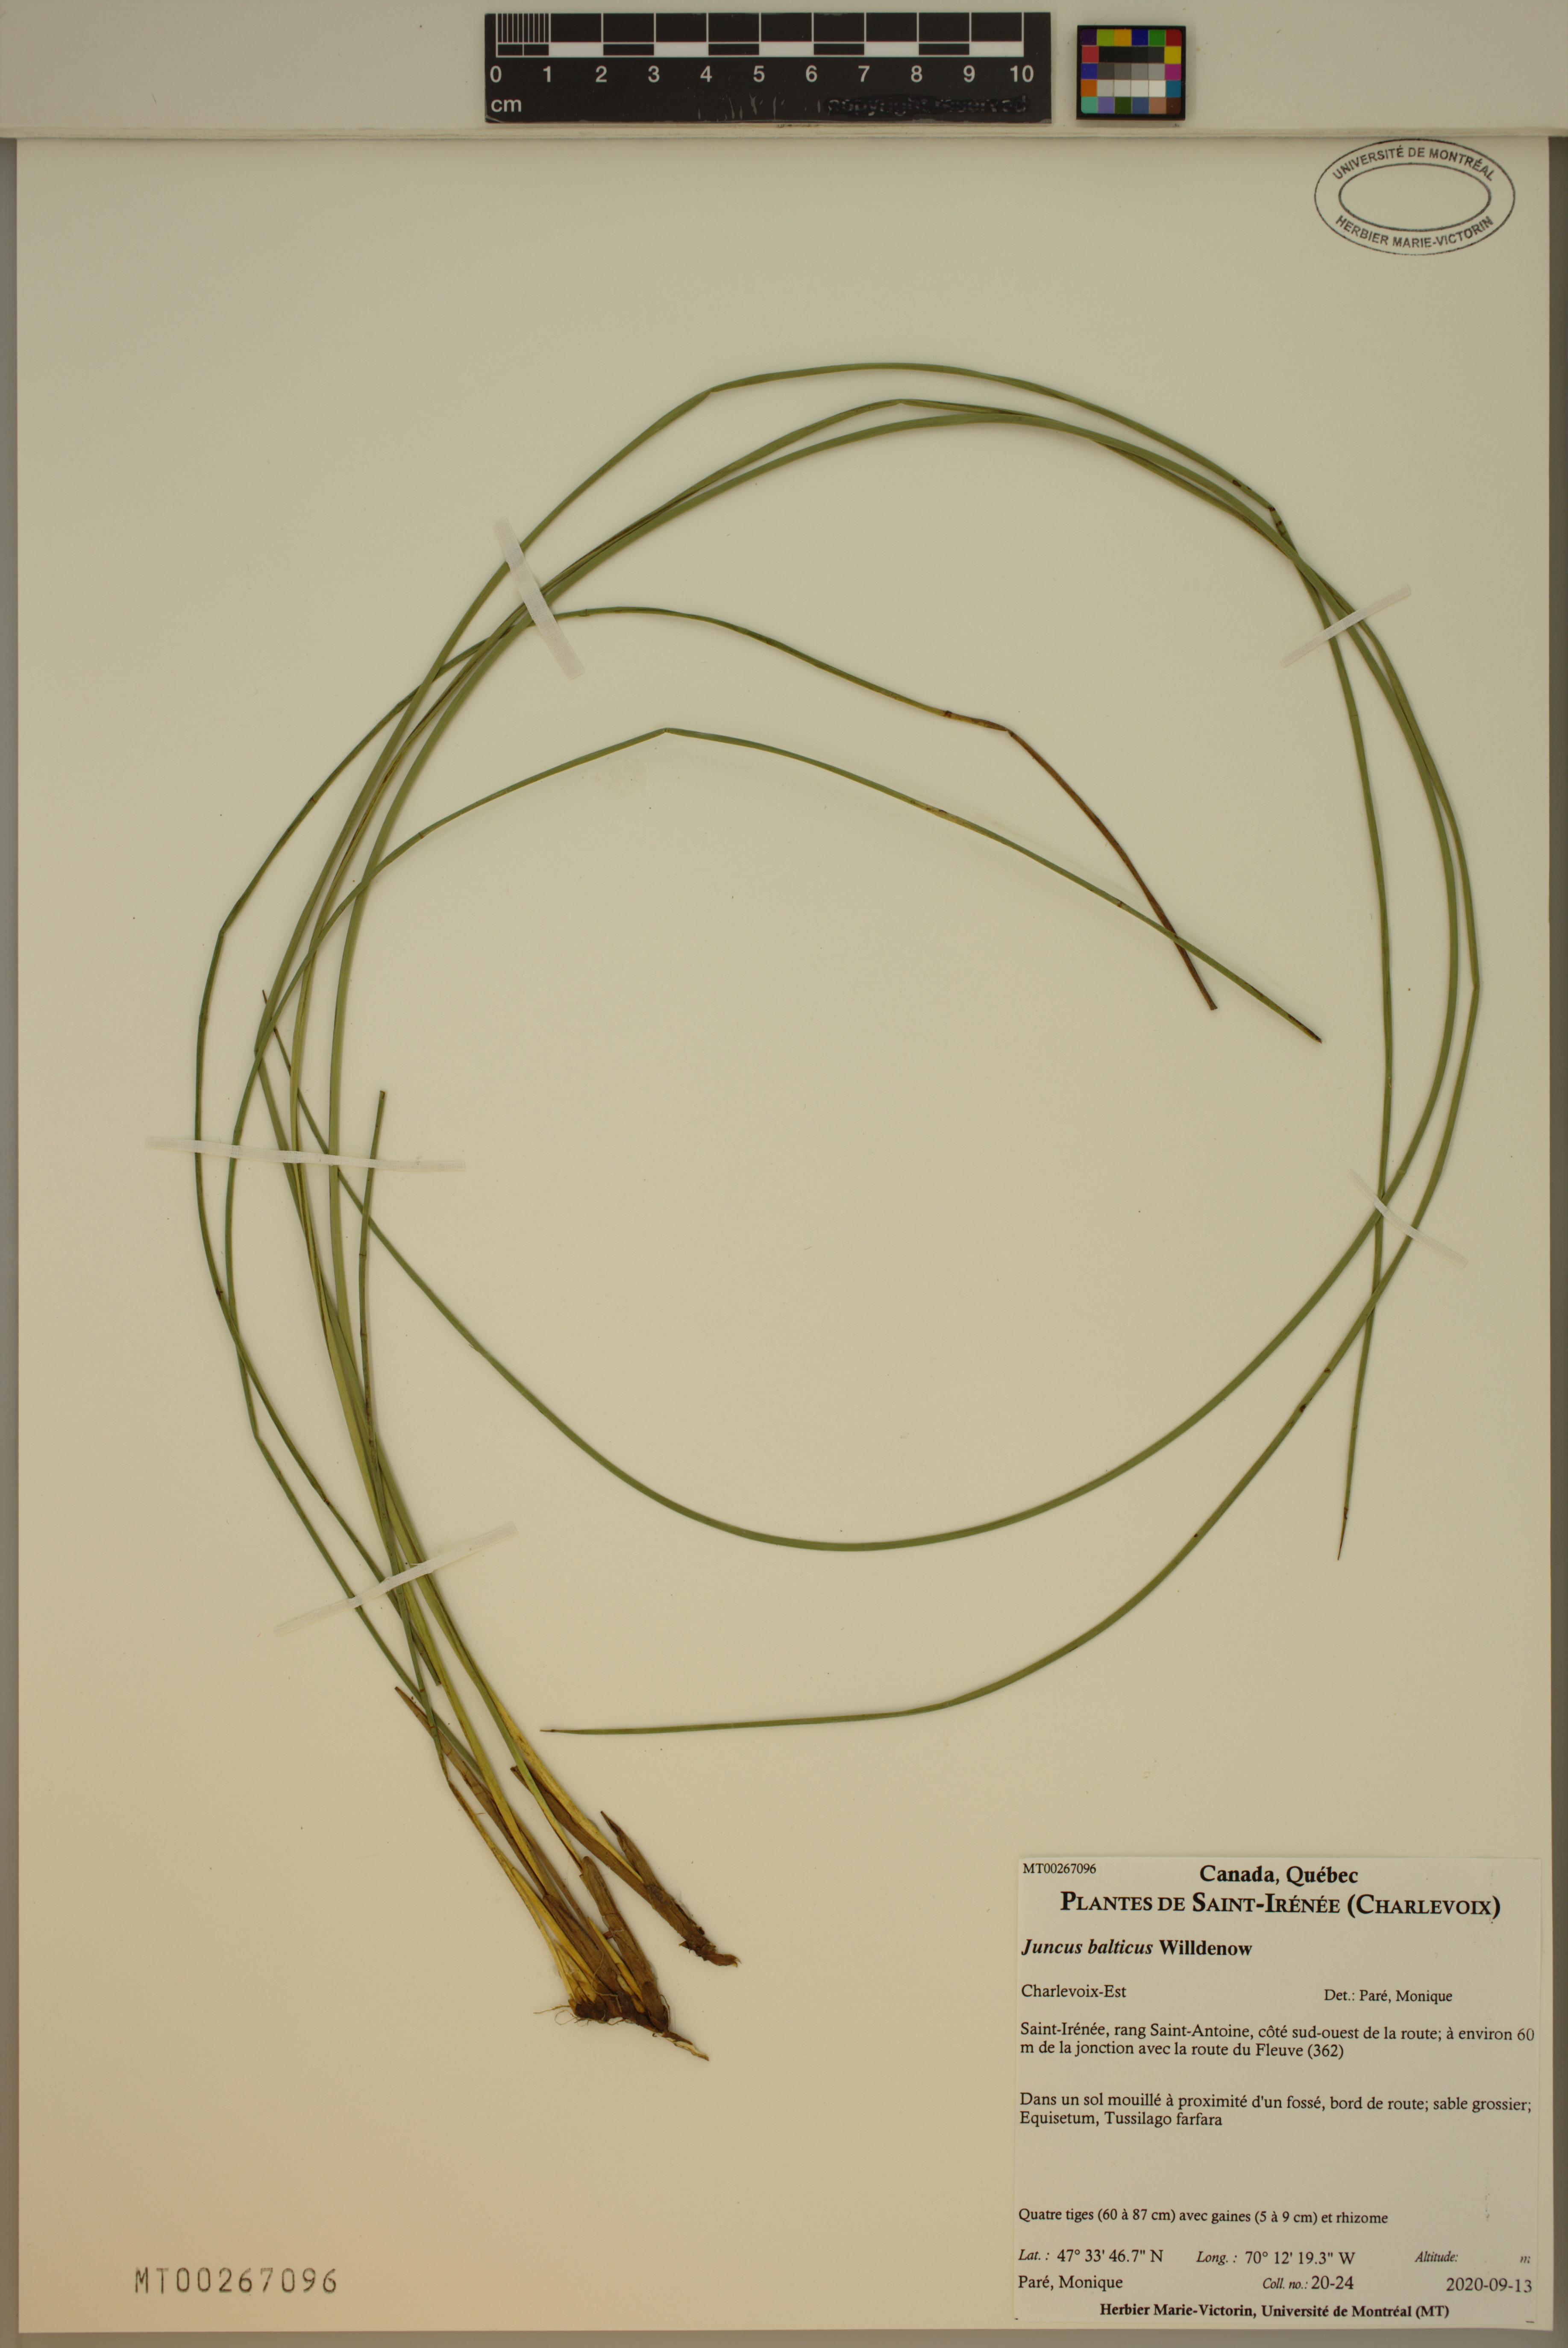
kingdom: Plantae
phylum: Tracheophyta
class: Liliopsida
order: Poales
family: Juncaceae
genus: Juncus
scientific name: Juncus balticus
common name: Baltic rush
